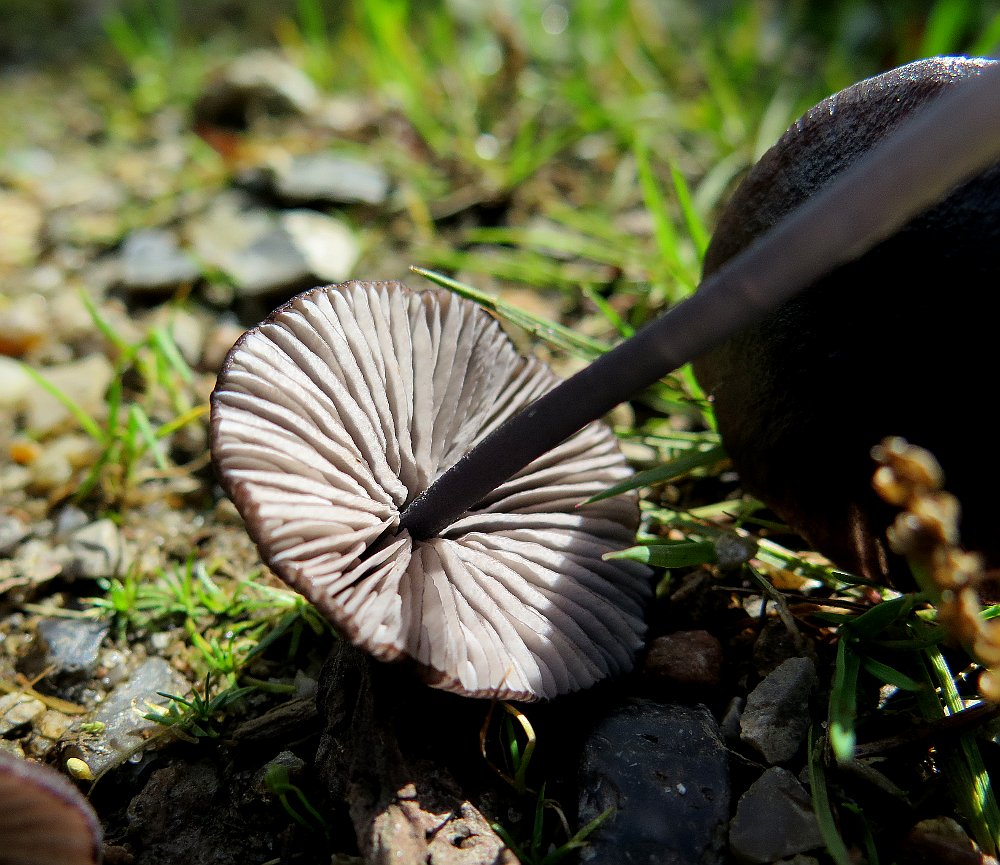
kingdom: Fungi
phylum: Basidiomycota
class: Agaricomycetes
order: Agaricales
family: Entolomataceae
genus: Entoloma
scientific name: Entoloma
